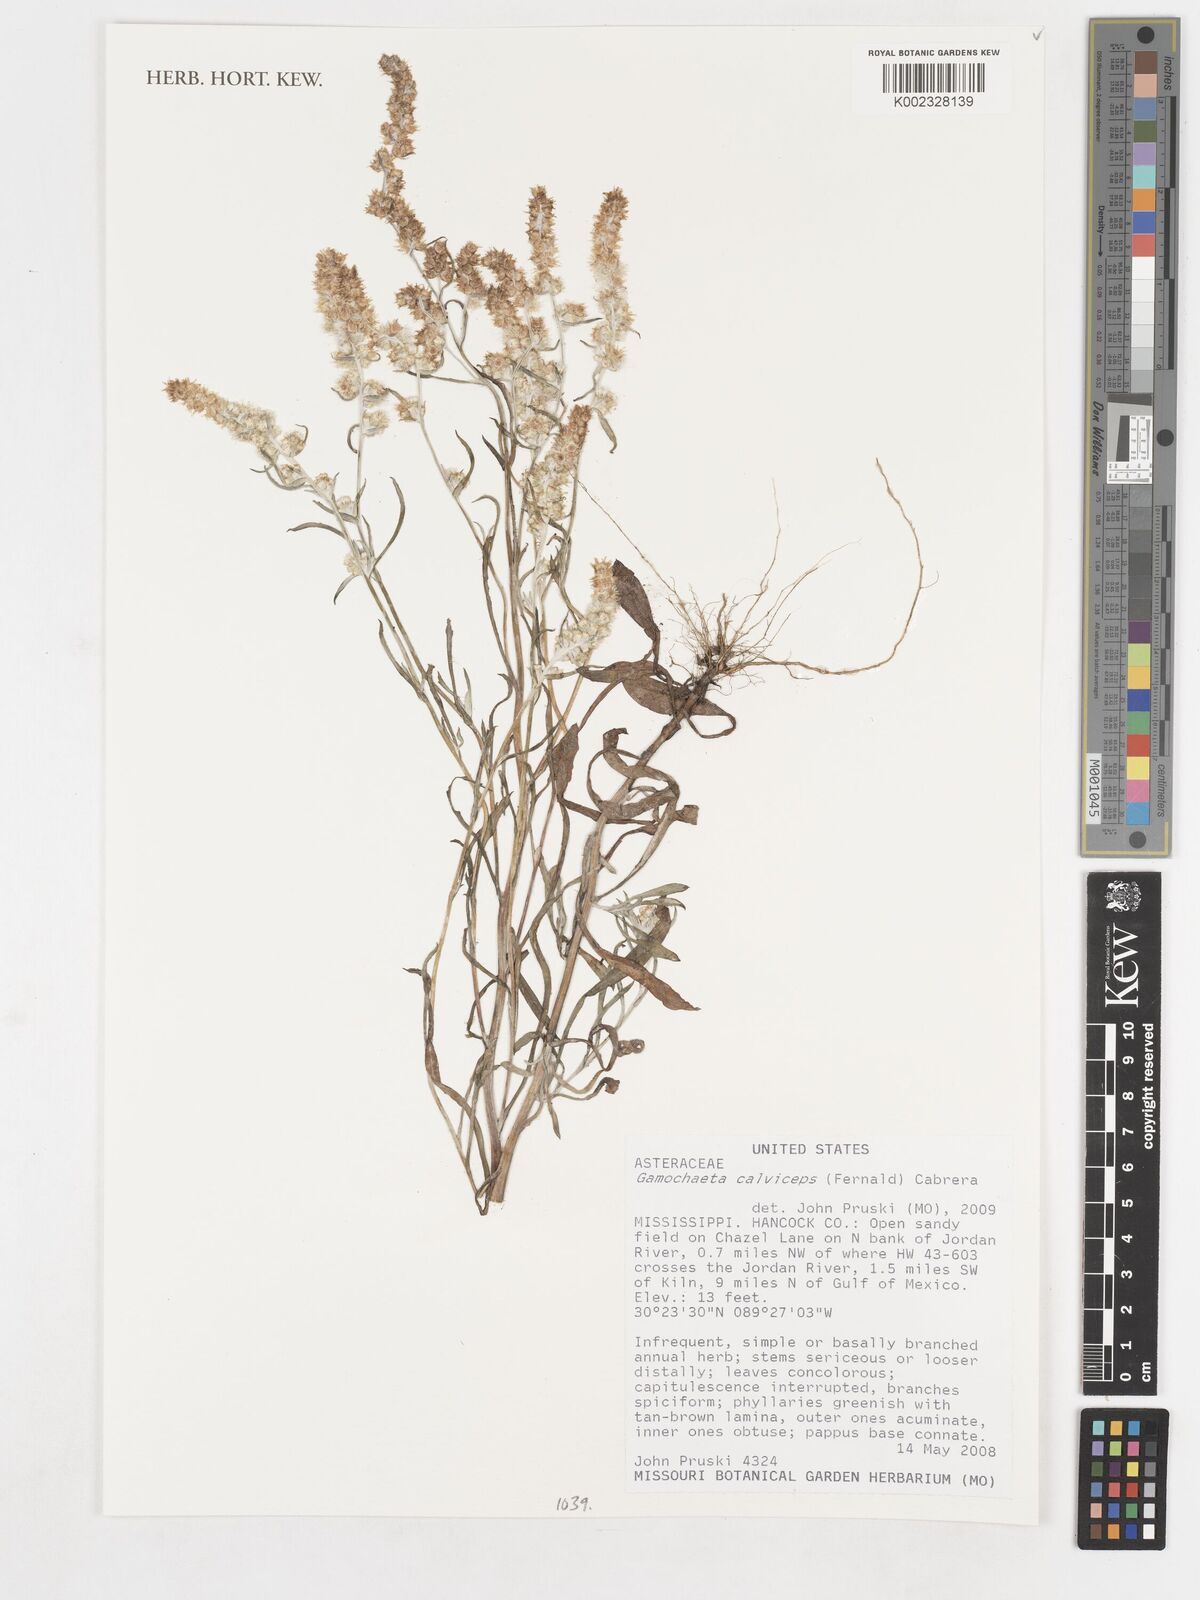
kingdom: Plantae
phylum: Tracheophyta
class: Magnoliopsida
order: Asterales
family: Asteraceae
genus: Gamochaeta
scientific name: Gamochaeta calviceps
